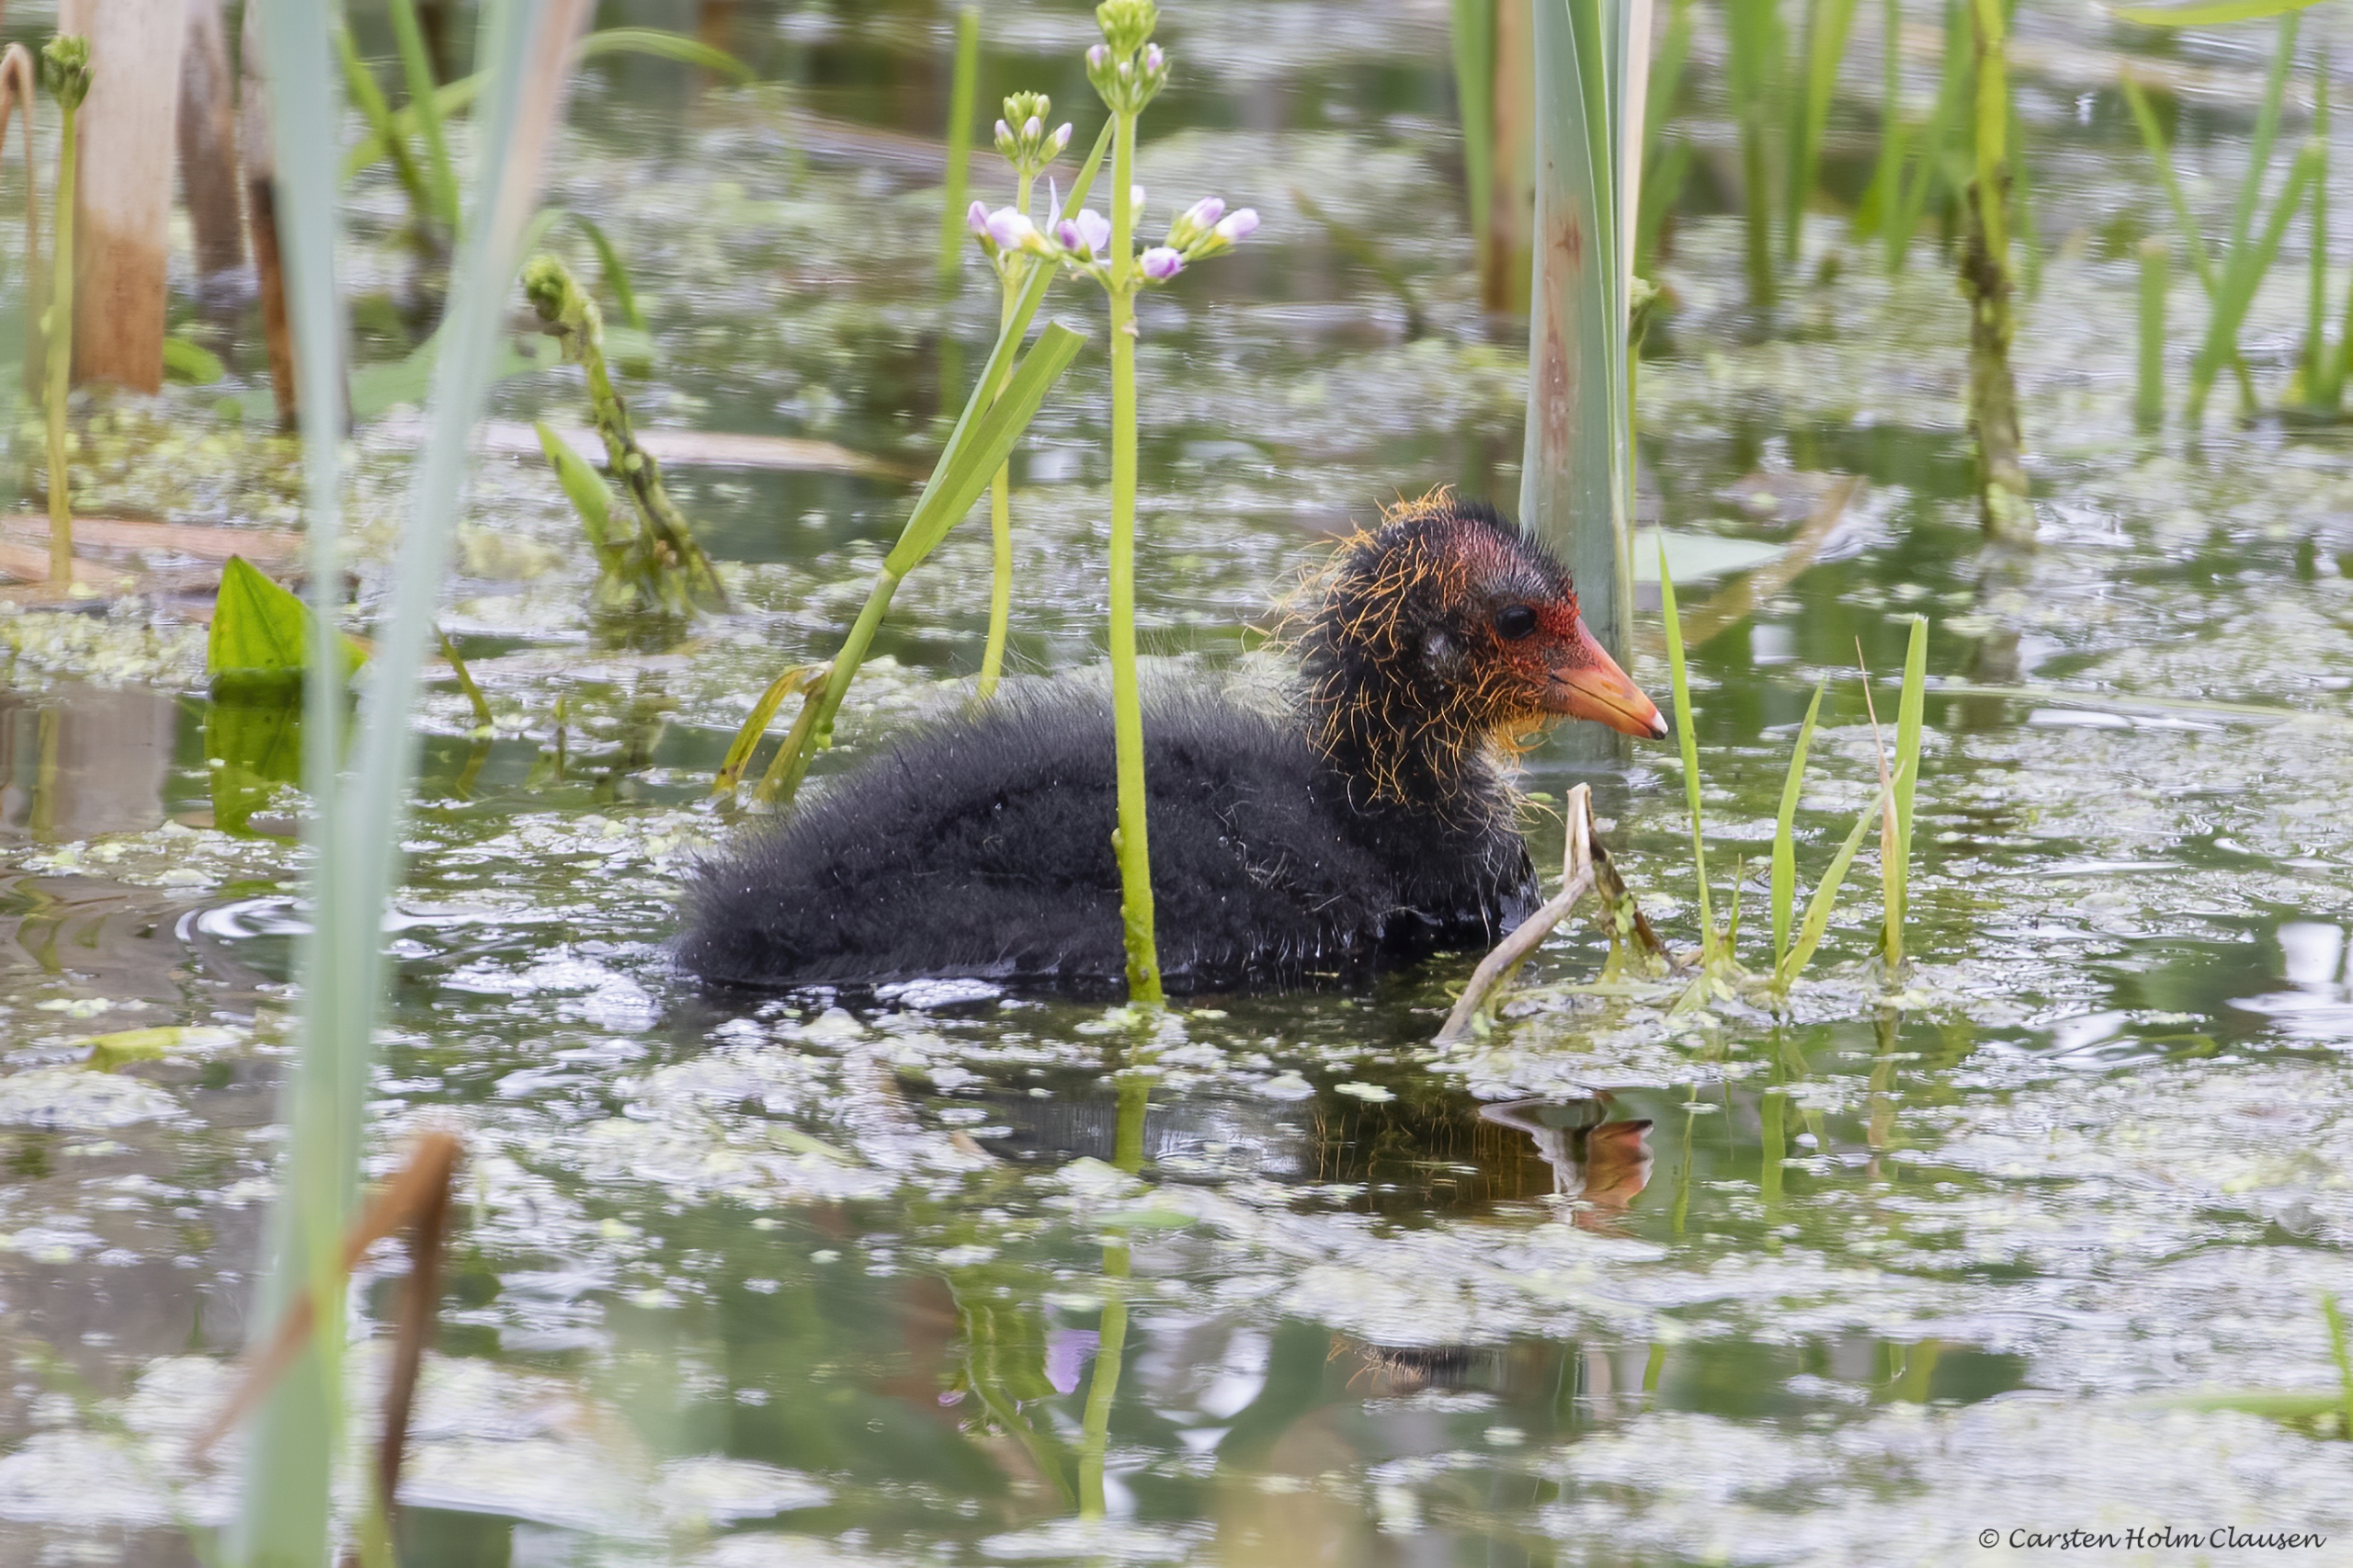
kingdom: Animalia
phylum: Chordata
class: Aves
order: Gruiformes
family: Rallidae
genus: Fulica
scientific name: Fulica atra
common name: Blishøne
